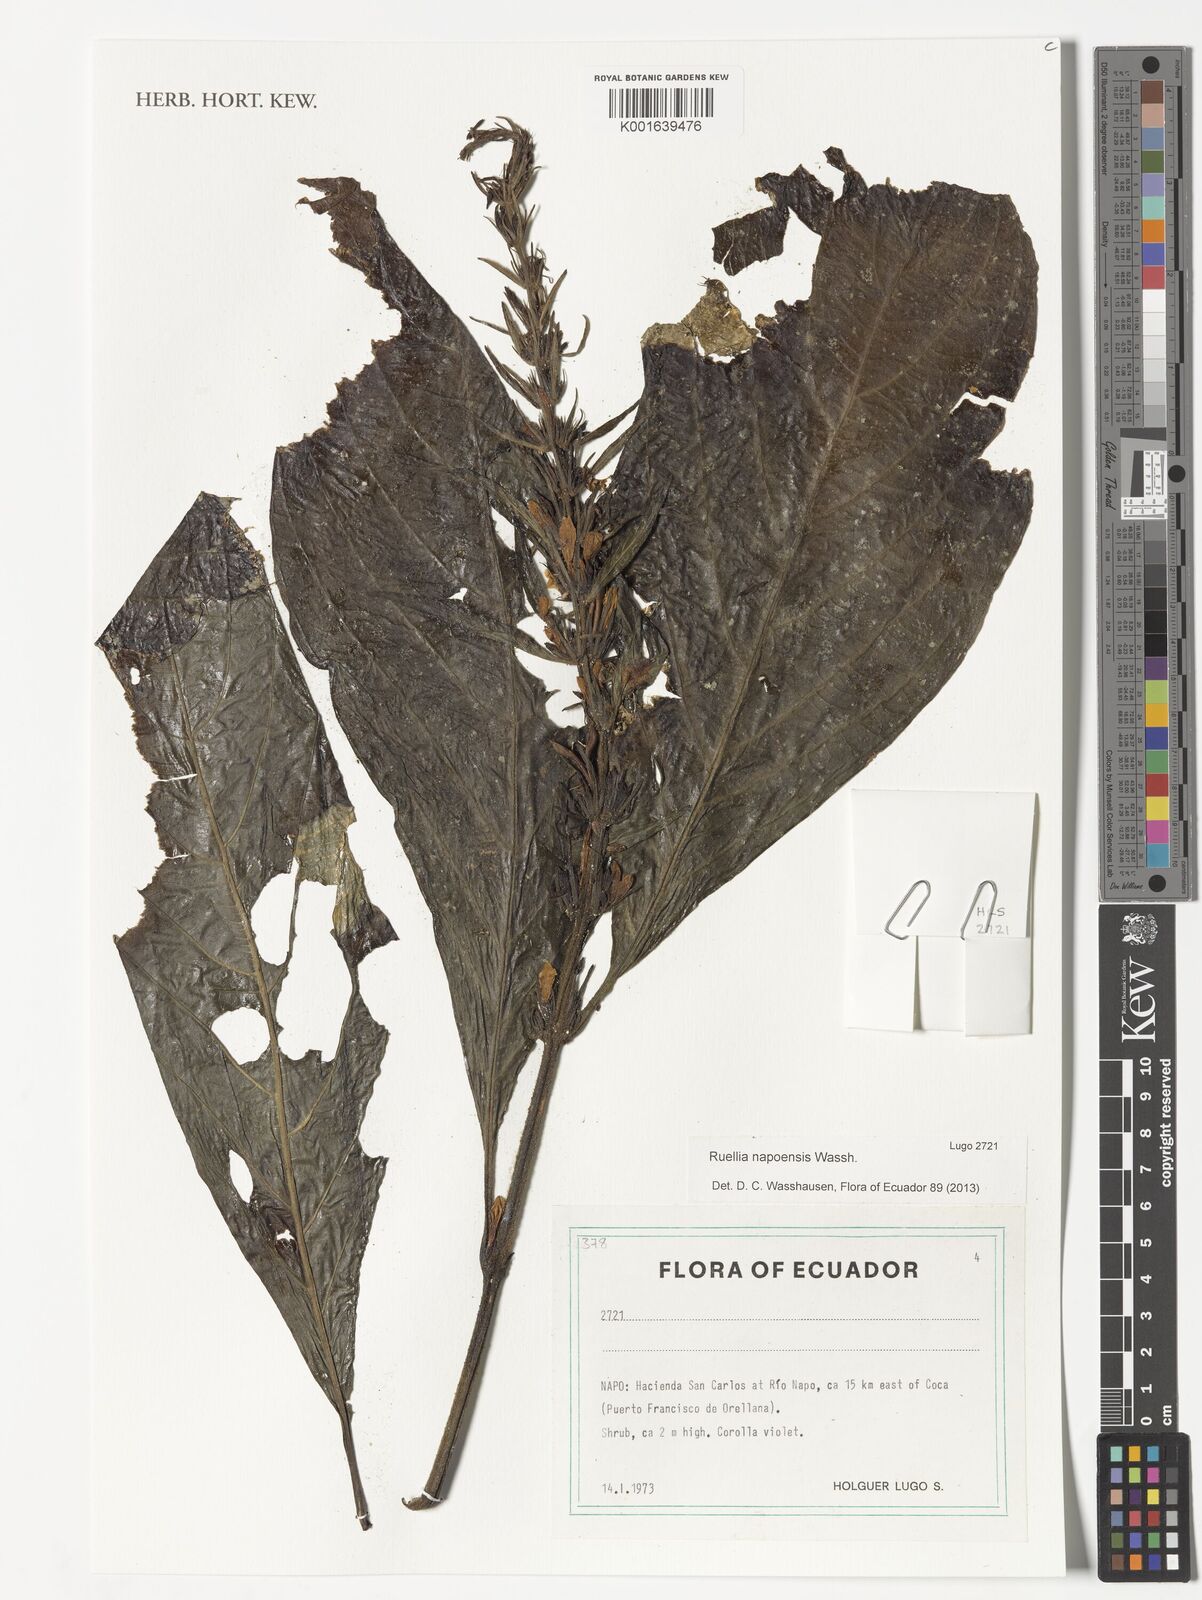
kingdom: Plantae
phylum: Tracheophyta
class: Magnoliopsida
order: Lamiales
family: Acanthaceae
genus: Ruellia
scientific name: Ruellia napoensis
